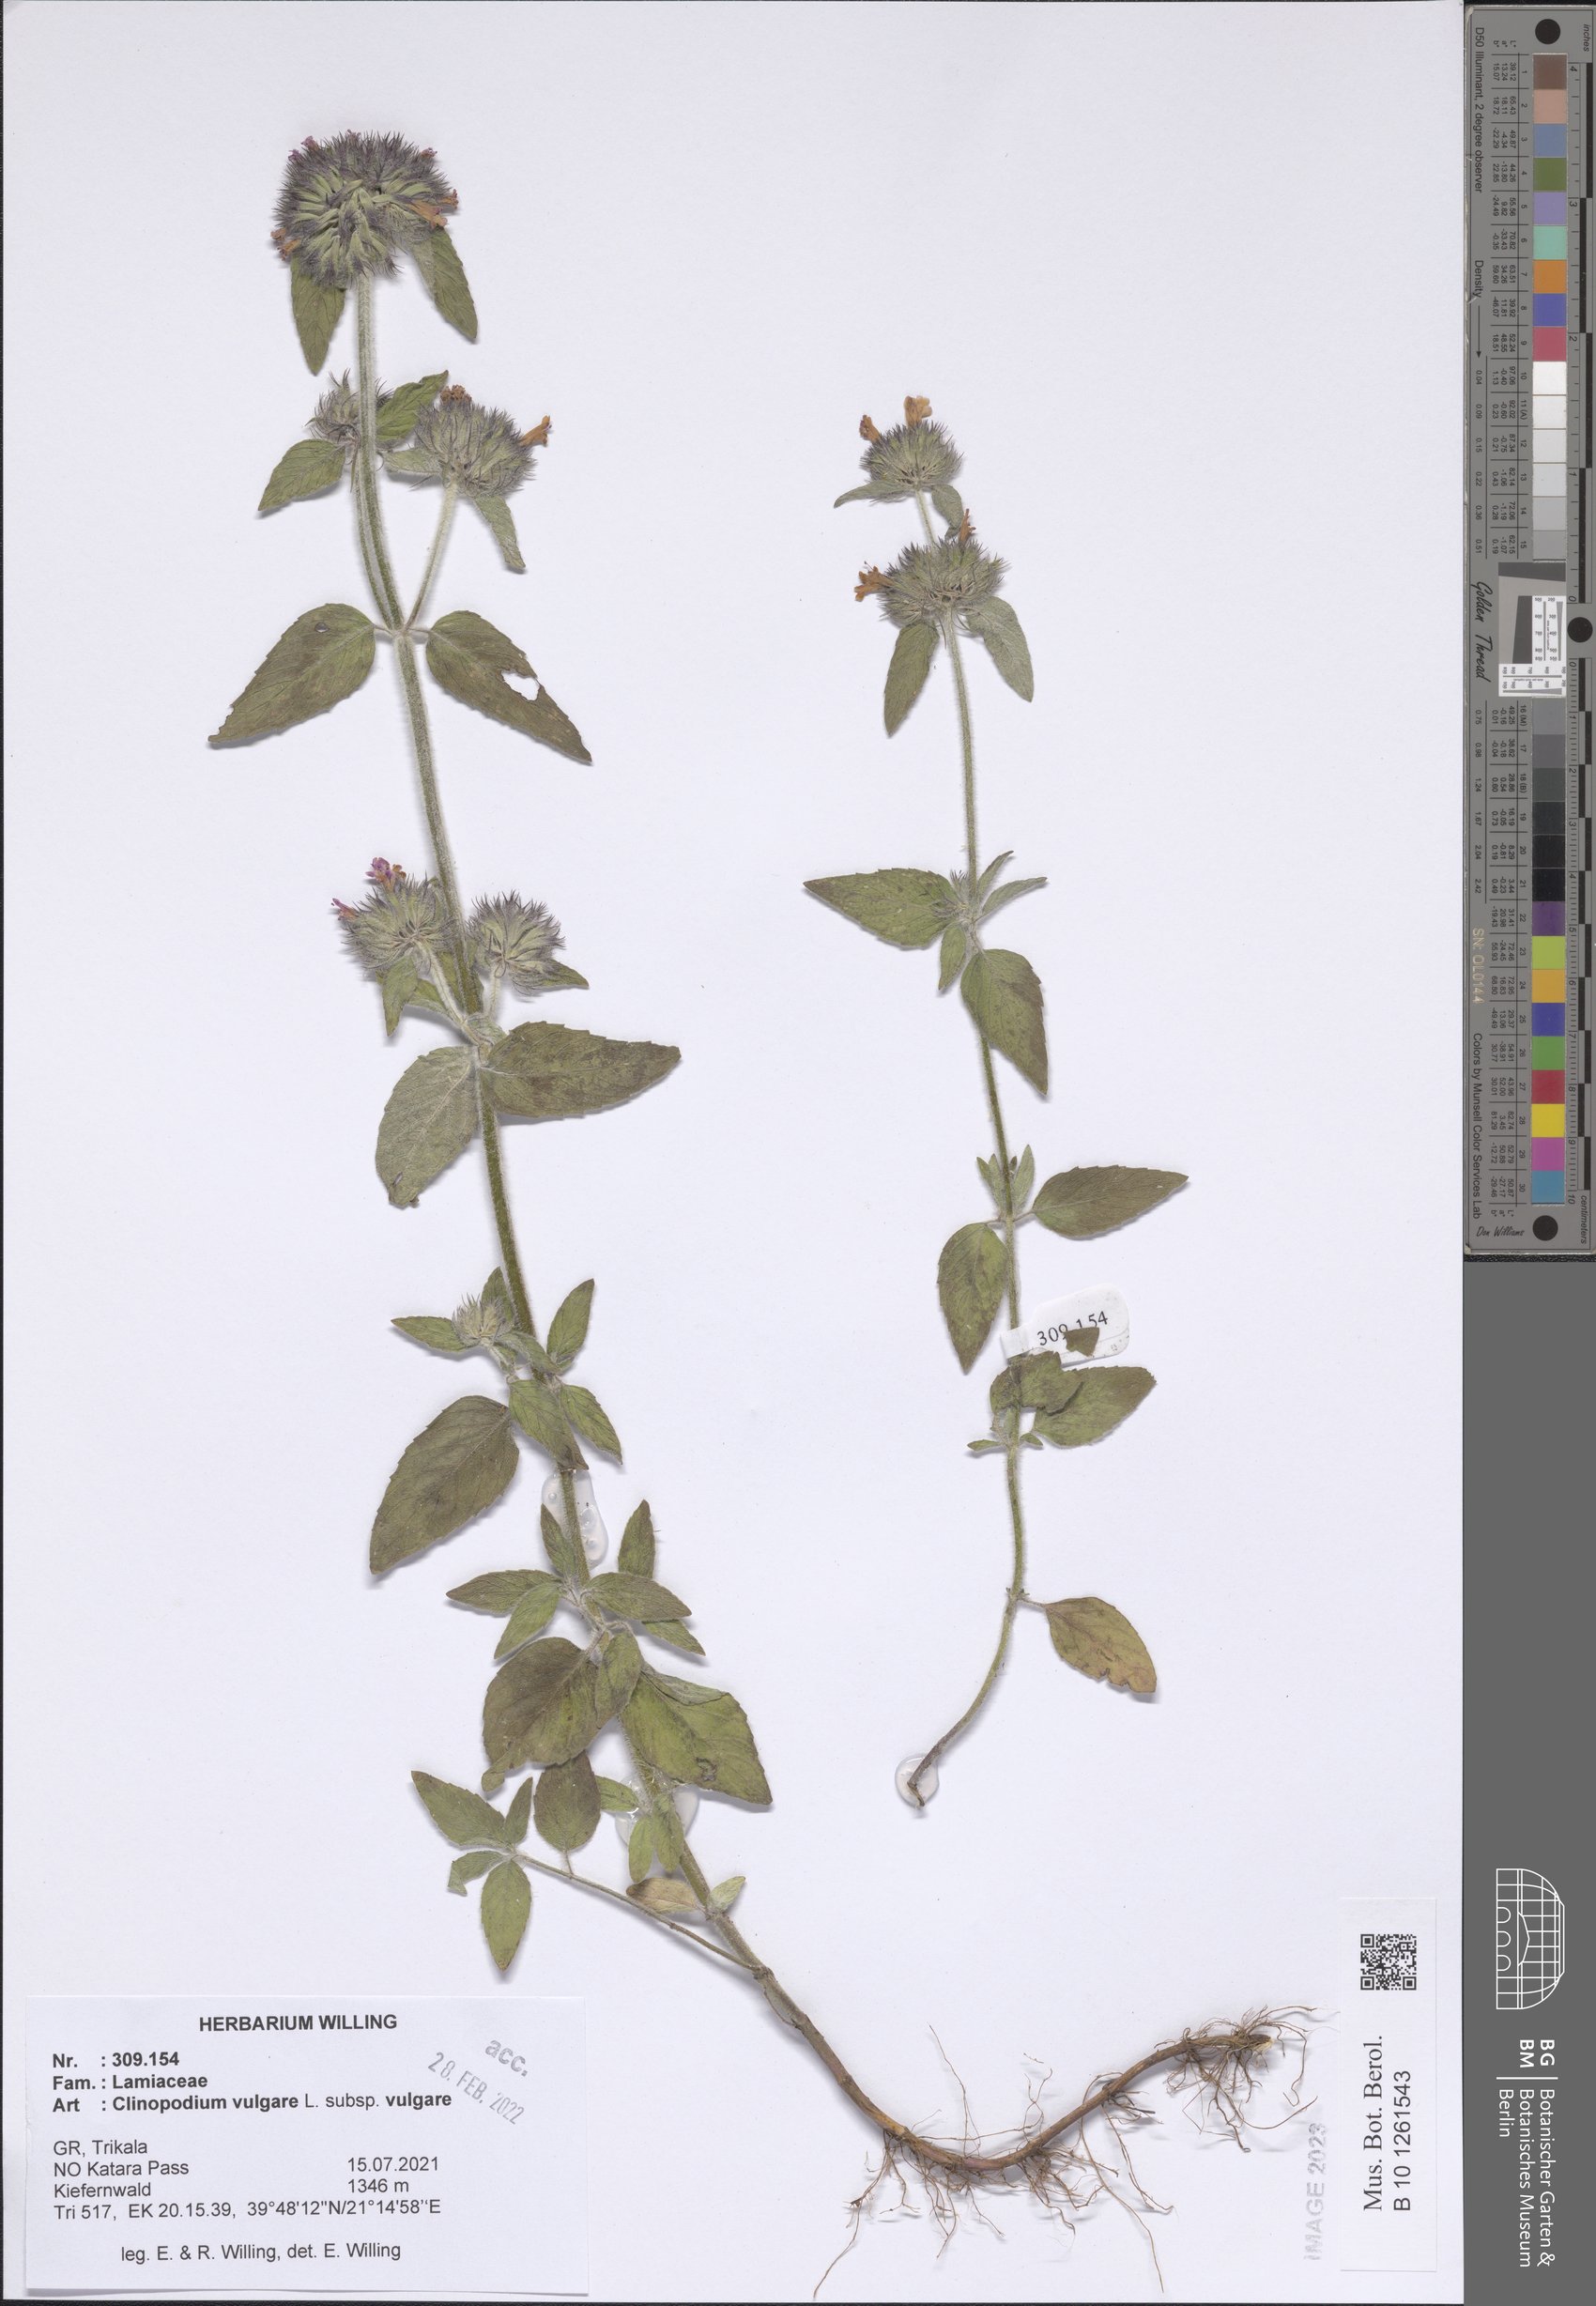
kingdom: Plantae
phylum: Tracheophyta
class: Magnoliopsida
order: Lamiales
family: Lamiaceae
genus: Clinopodium
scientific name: Clinopodium vulgare
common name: Wild basil
